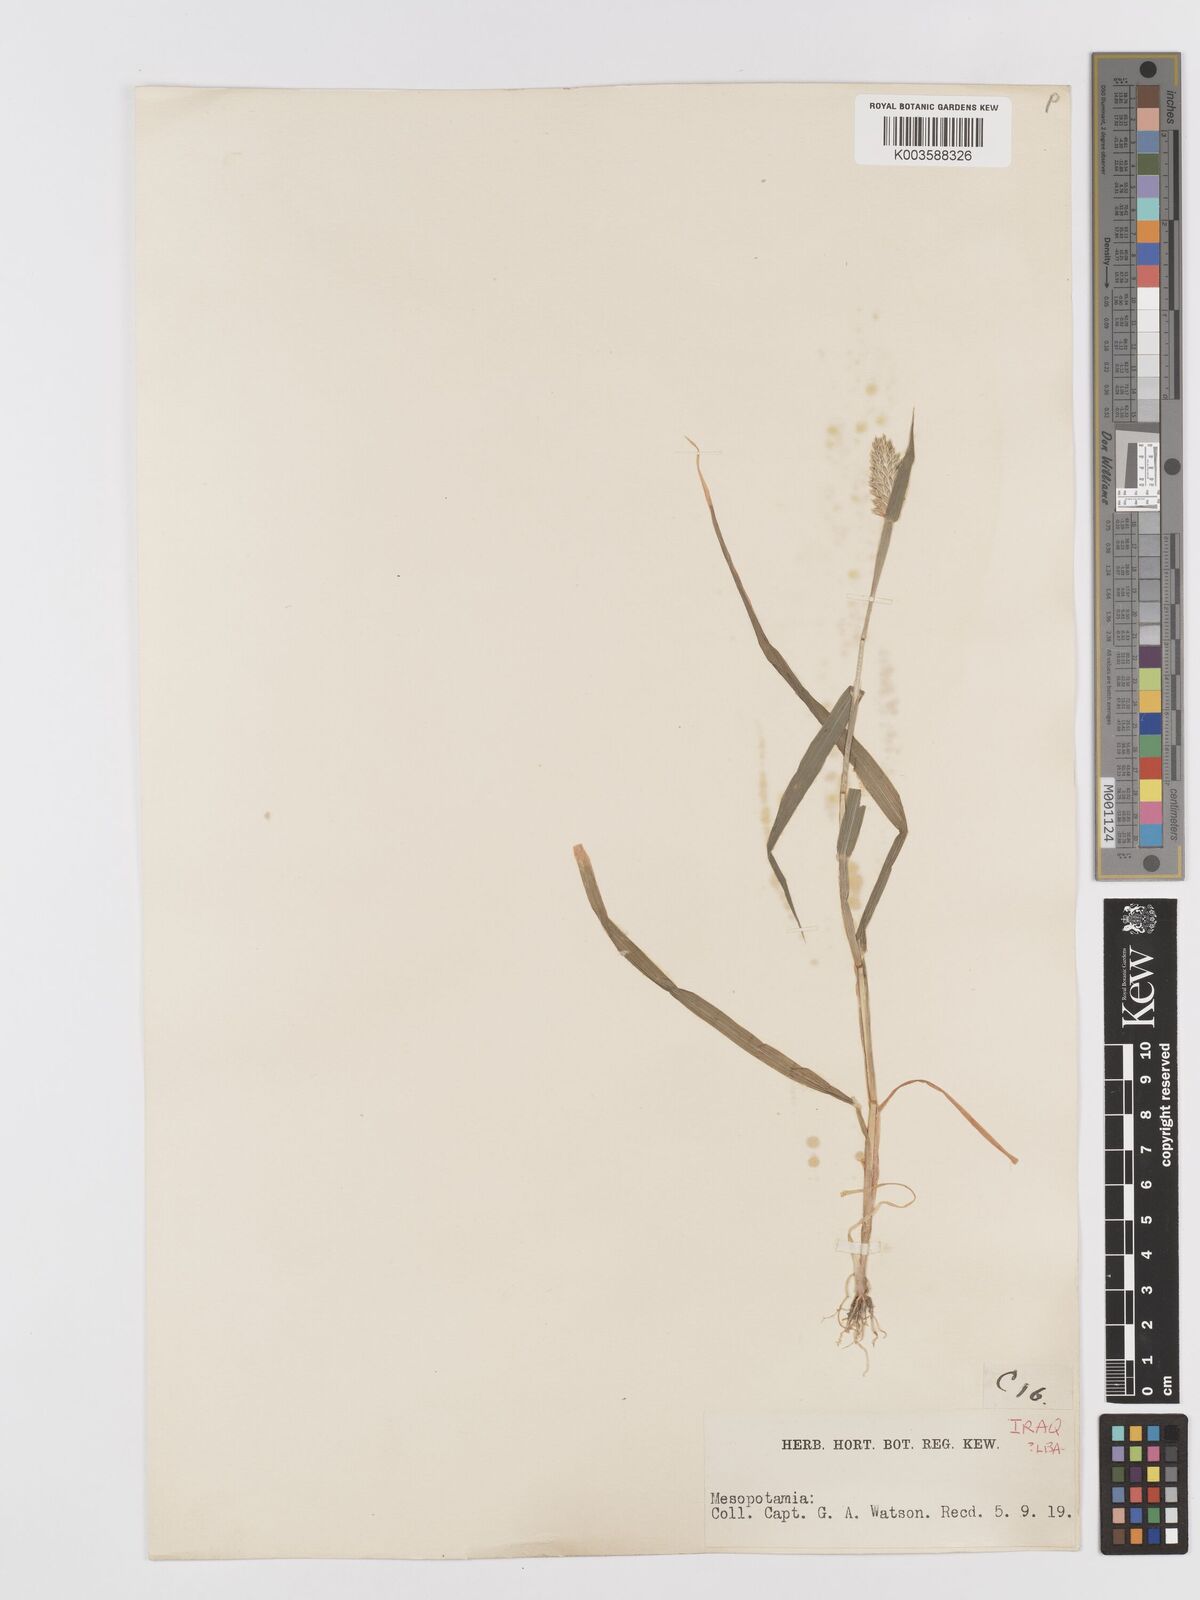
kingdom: Plantae
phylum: Tracheophyta
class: Liliopsida
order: Poales
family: Poaceae
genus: Phalaris
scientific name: Phalaris minor
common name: Littleseed canarygrass
